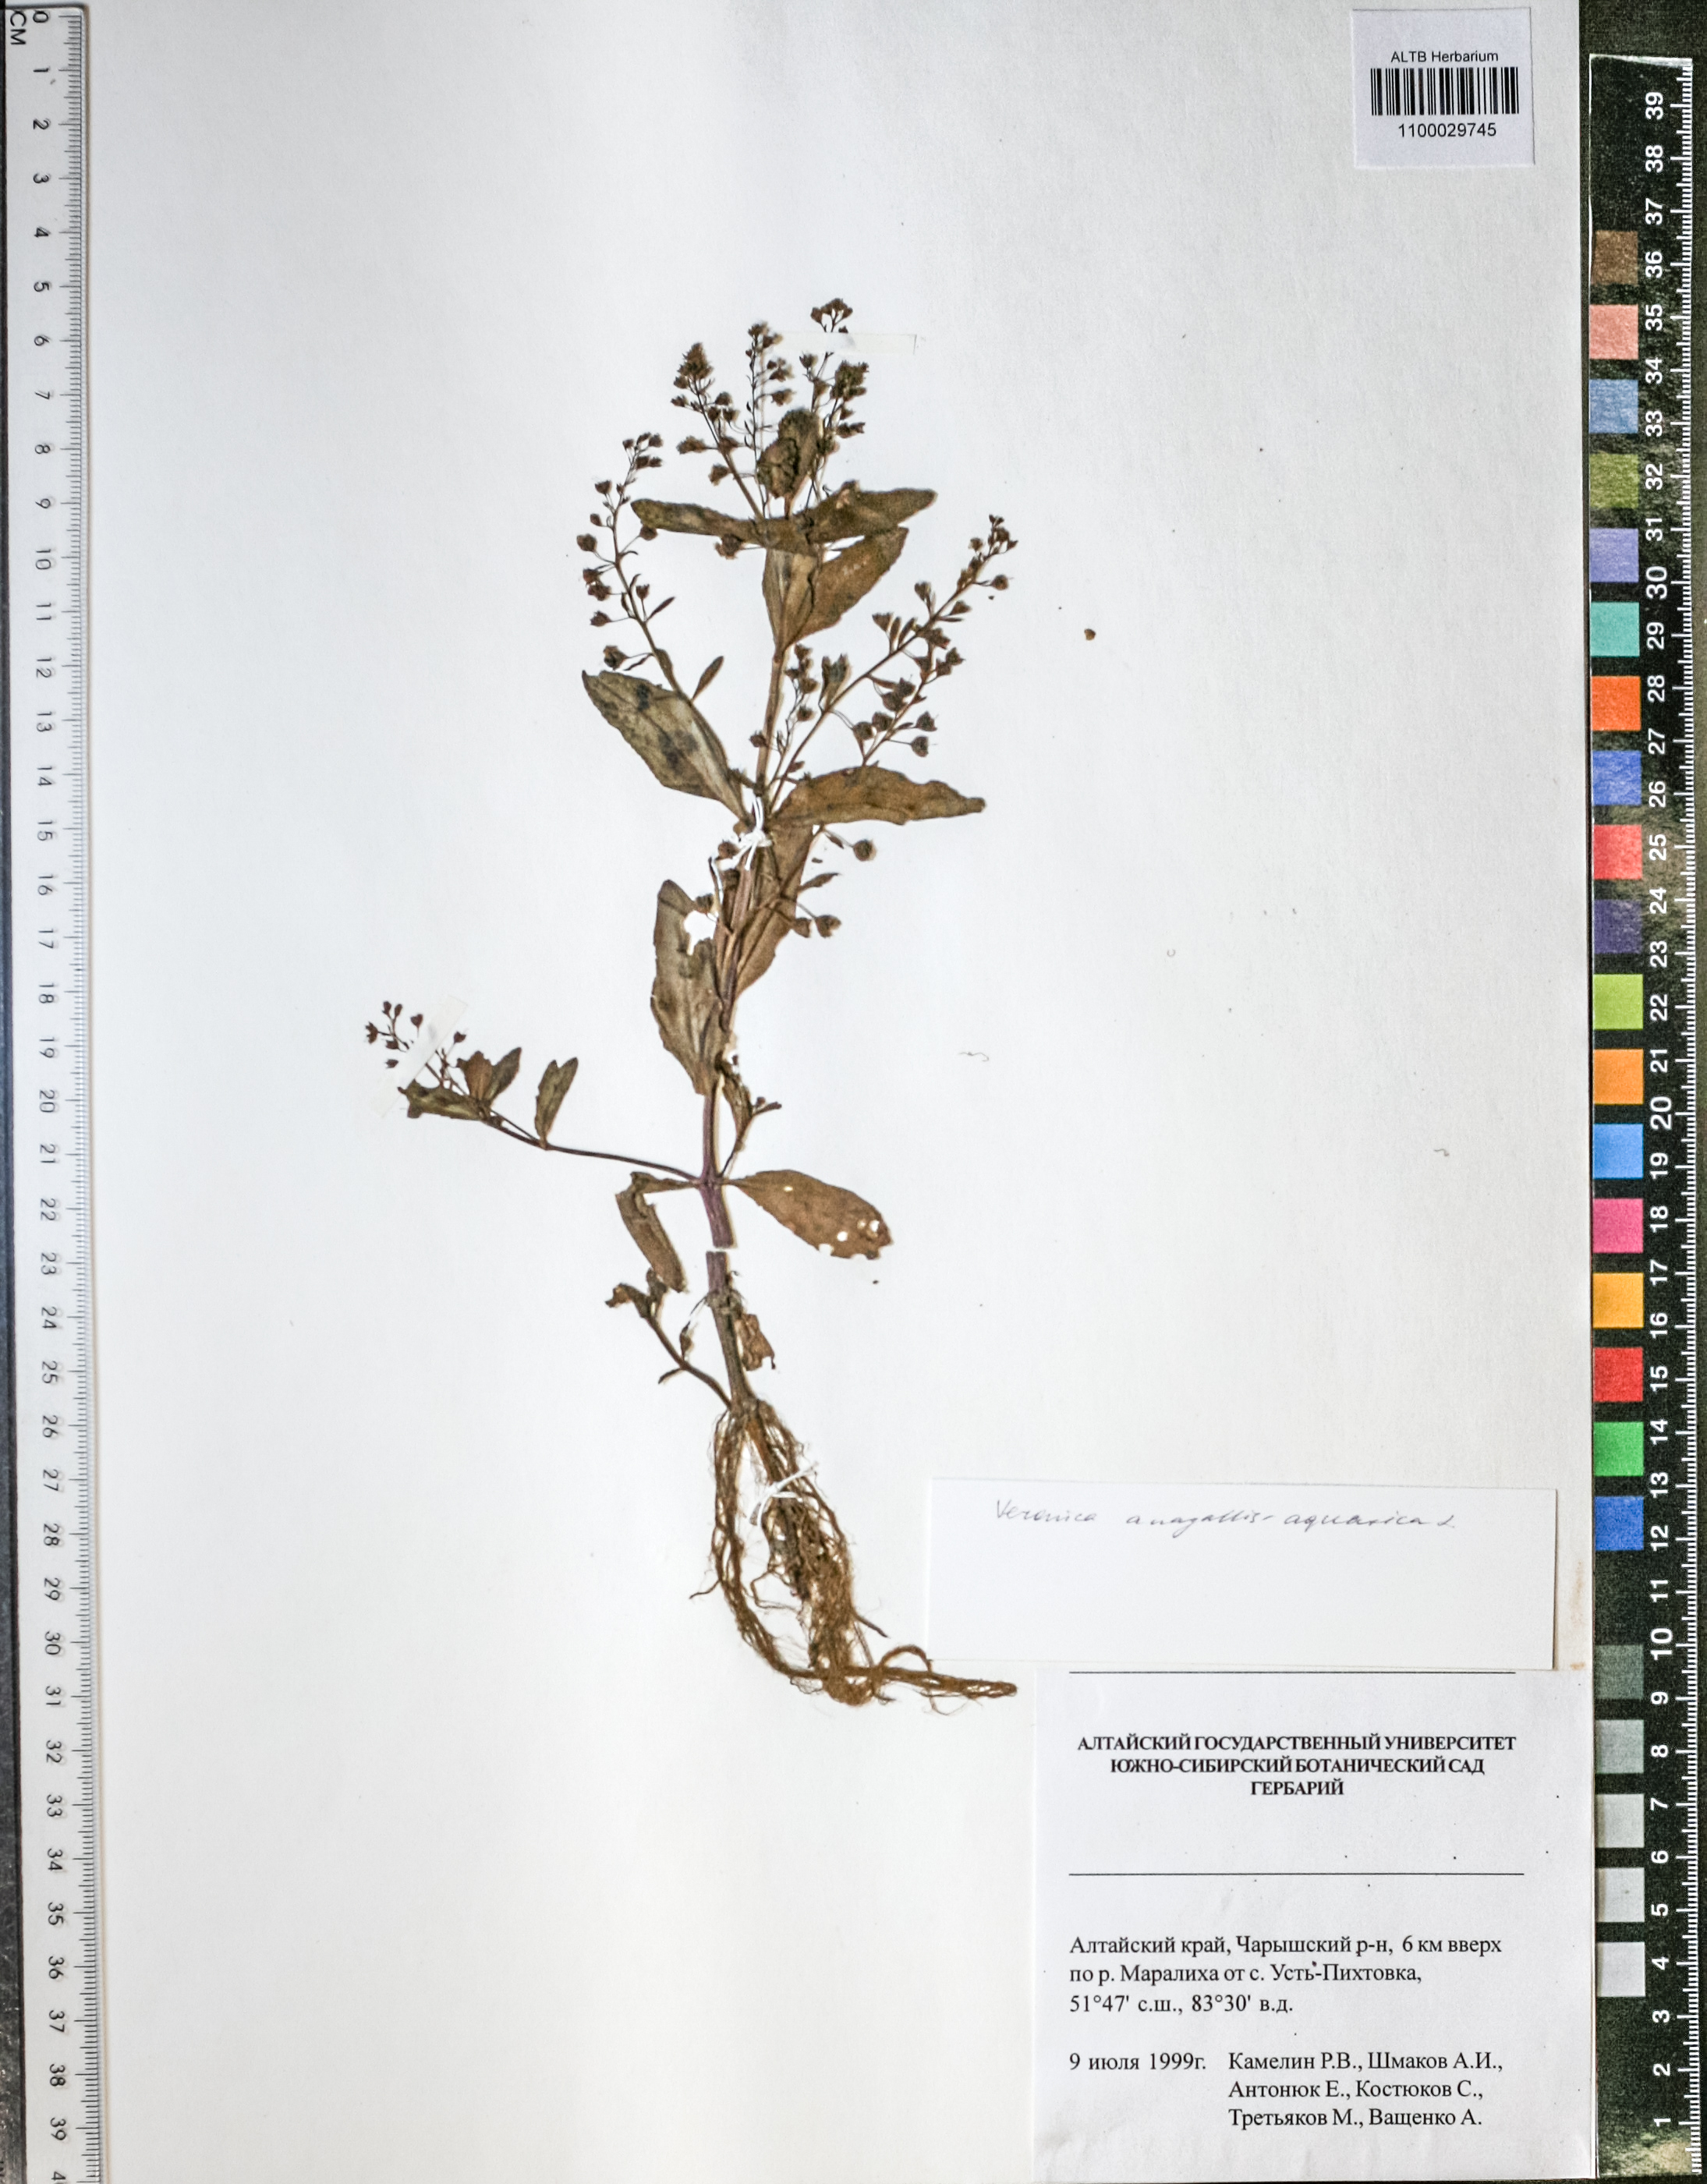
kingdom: Plantae
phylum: Tracheophyta
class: Magnoliopsida
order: Lamiales
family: Plantaginaceae
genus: Veronica
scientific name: Veronica anagallis-aquatica
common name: Water speedwell
